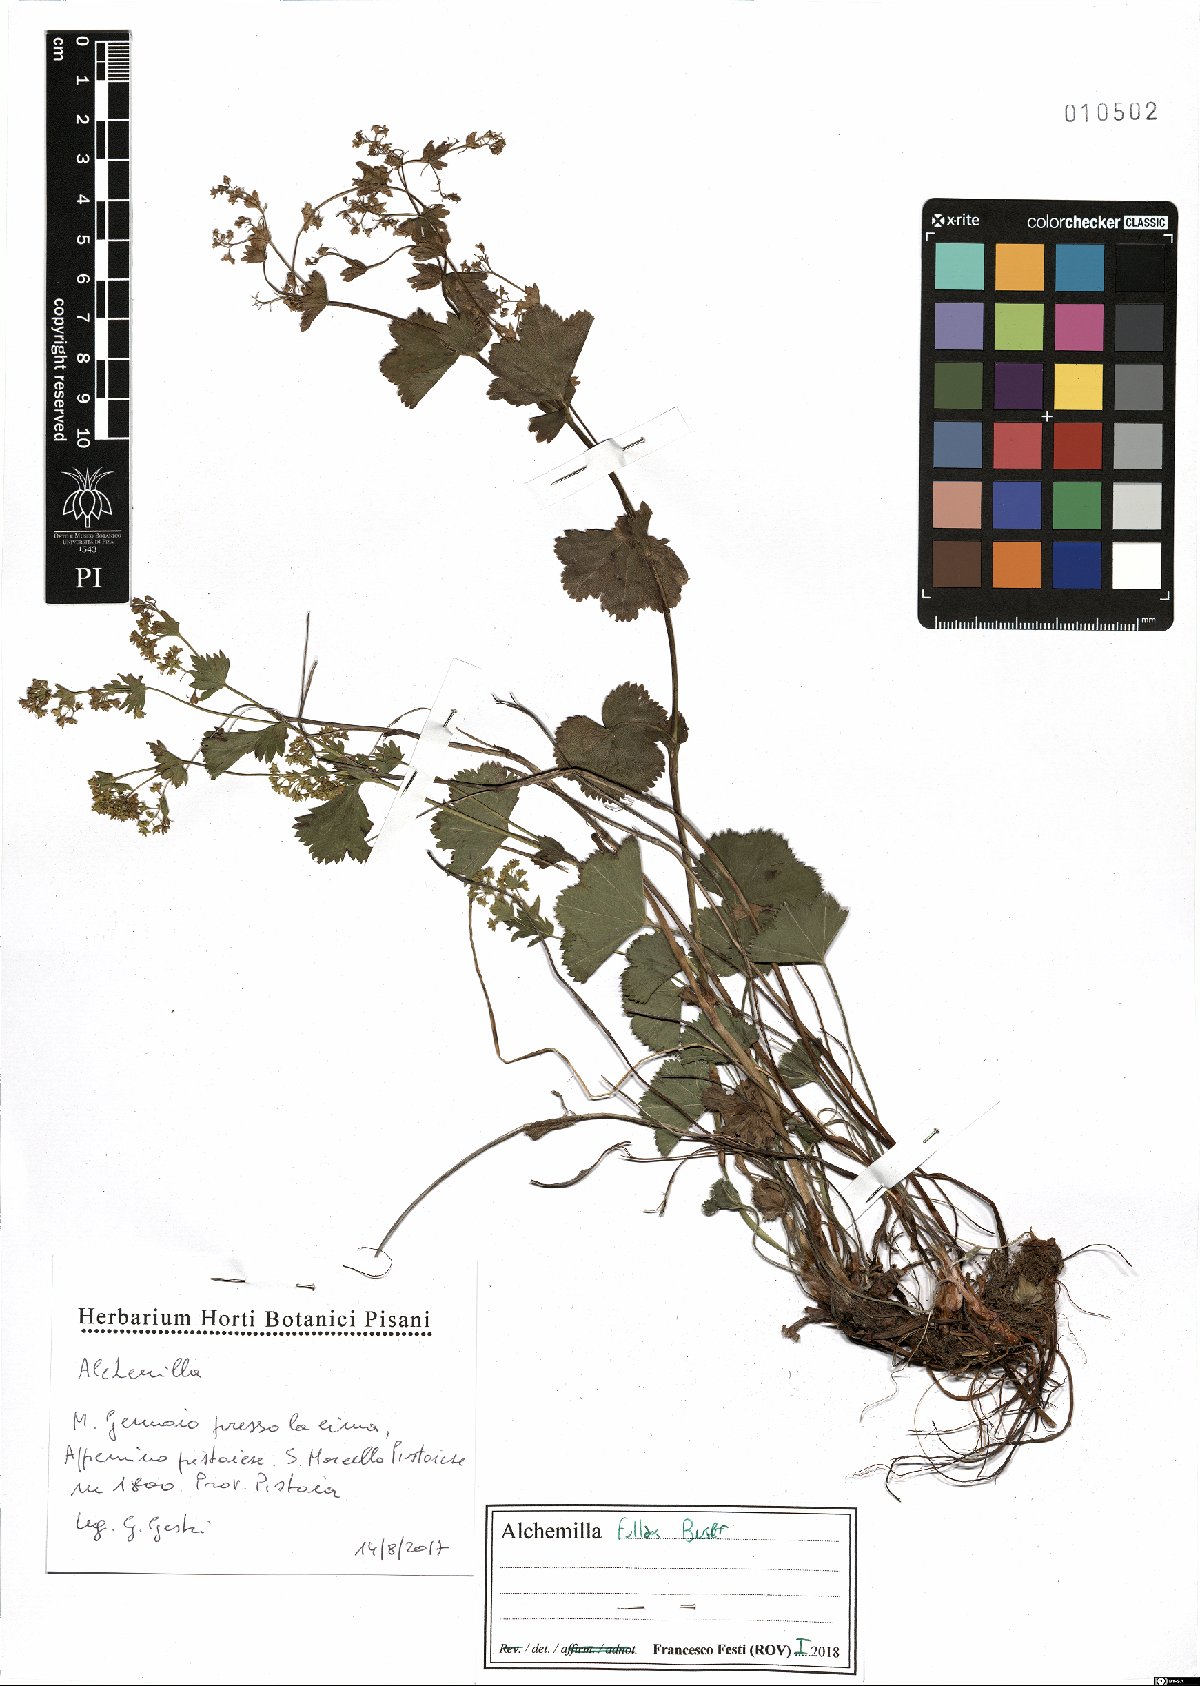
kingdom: Plantae
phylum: Tracheophyta
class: Magnoliopsida
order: Rosales
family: Rosaceae
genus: Alchemilla
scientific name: Alchemilla fallax
